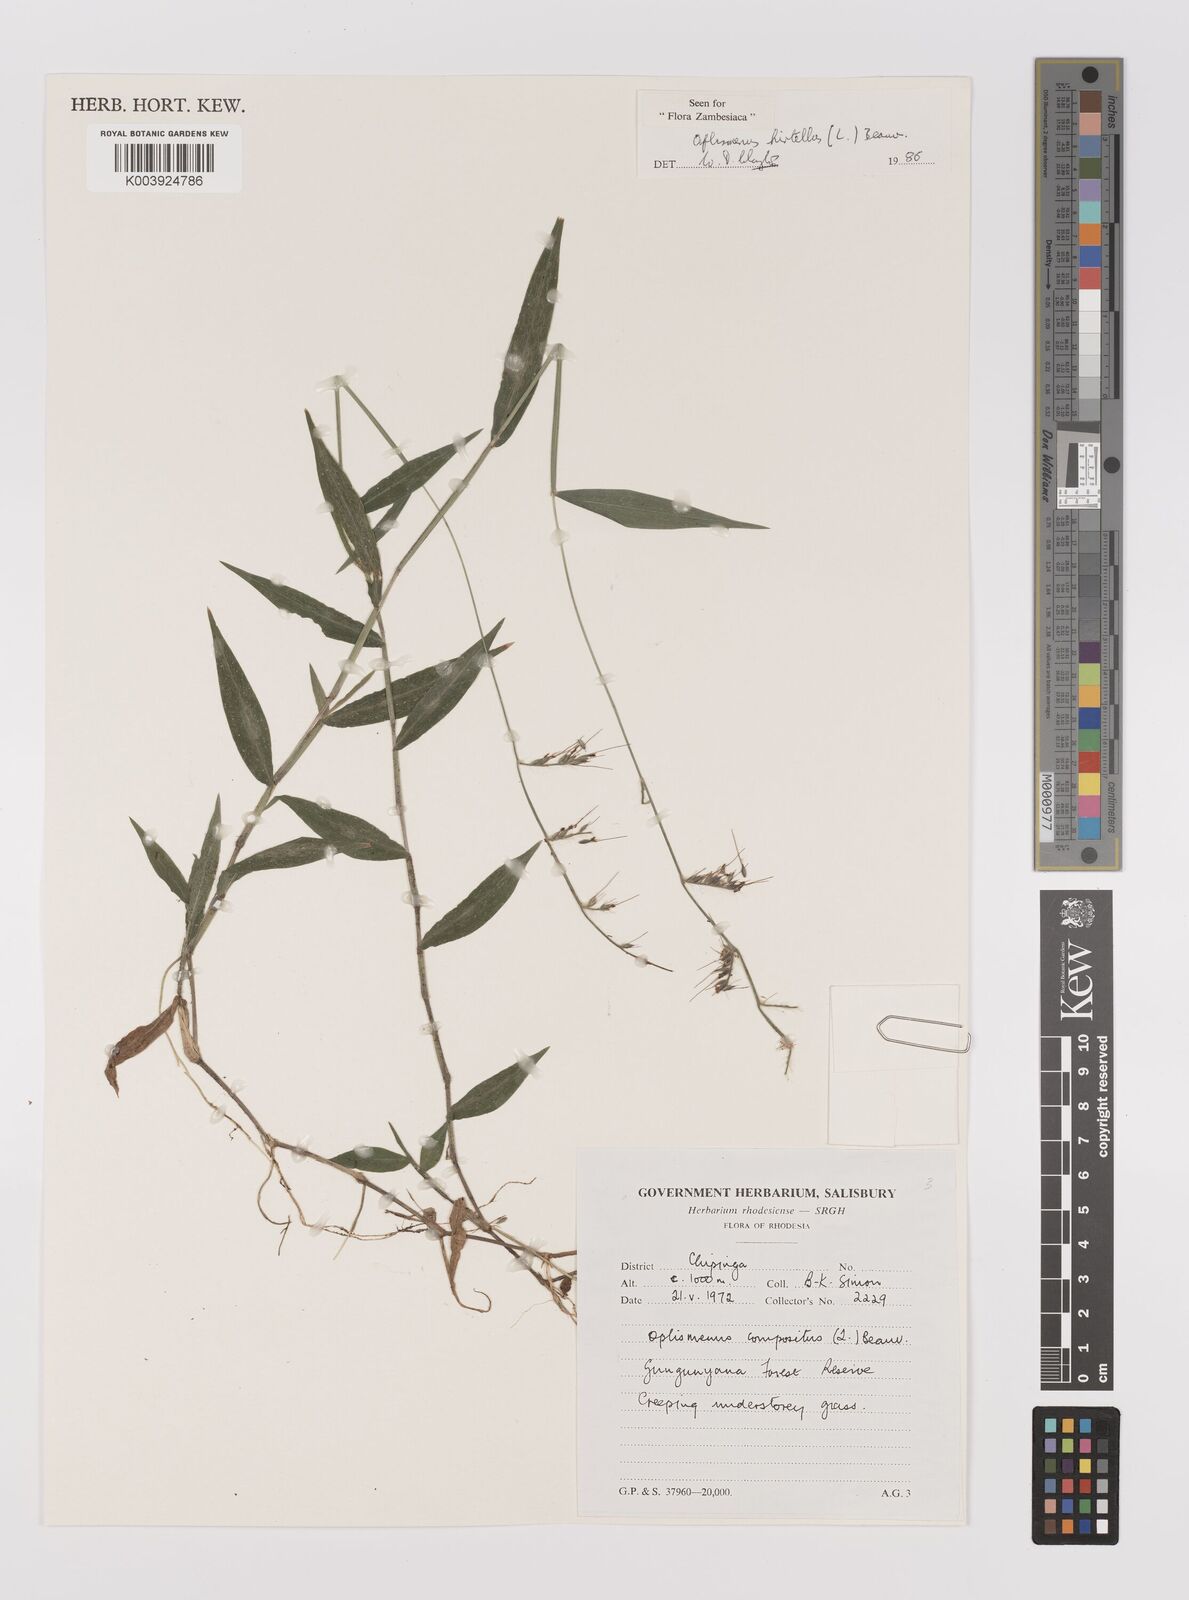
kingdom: Plantae
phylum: Tracheophyta
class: Liliopsida
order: Poales
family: Poaceae
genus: Oplismenus
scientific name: Oplismenus hirtellus
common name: Basketgrass
